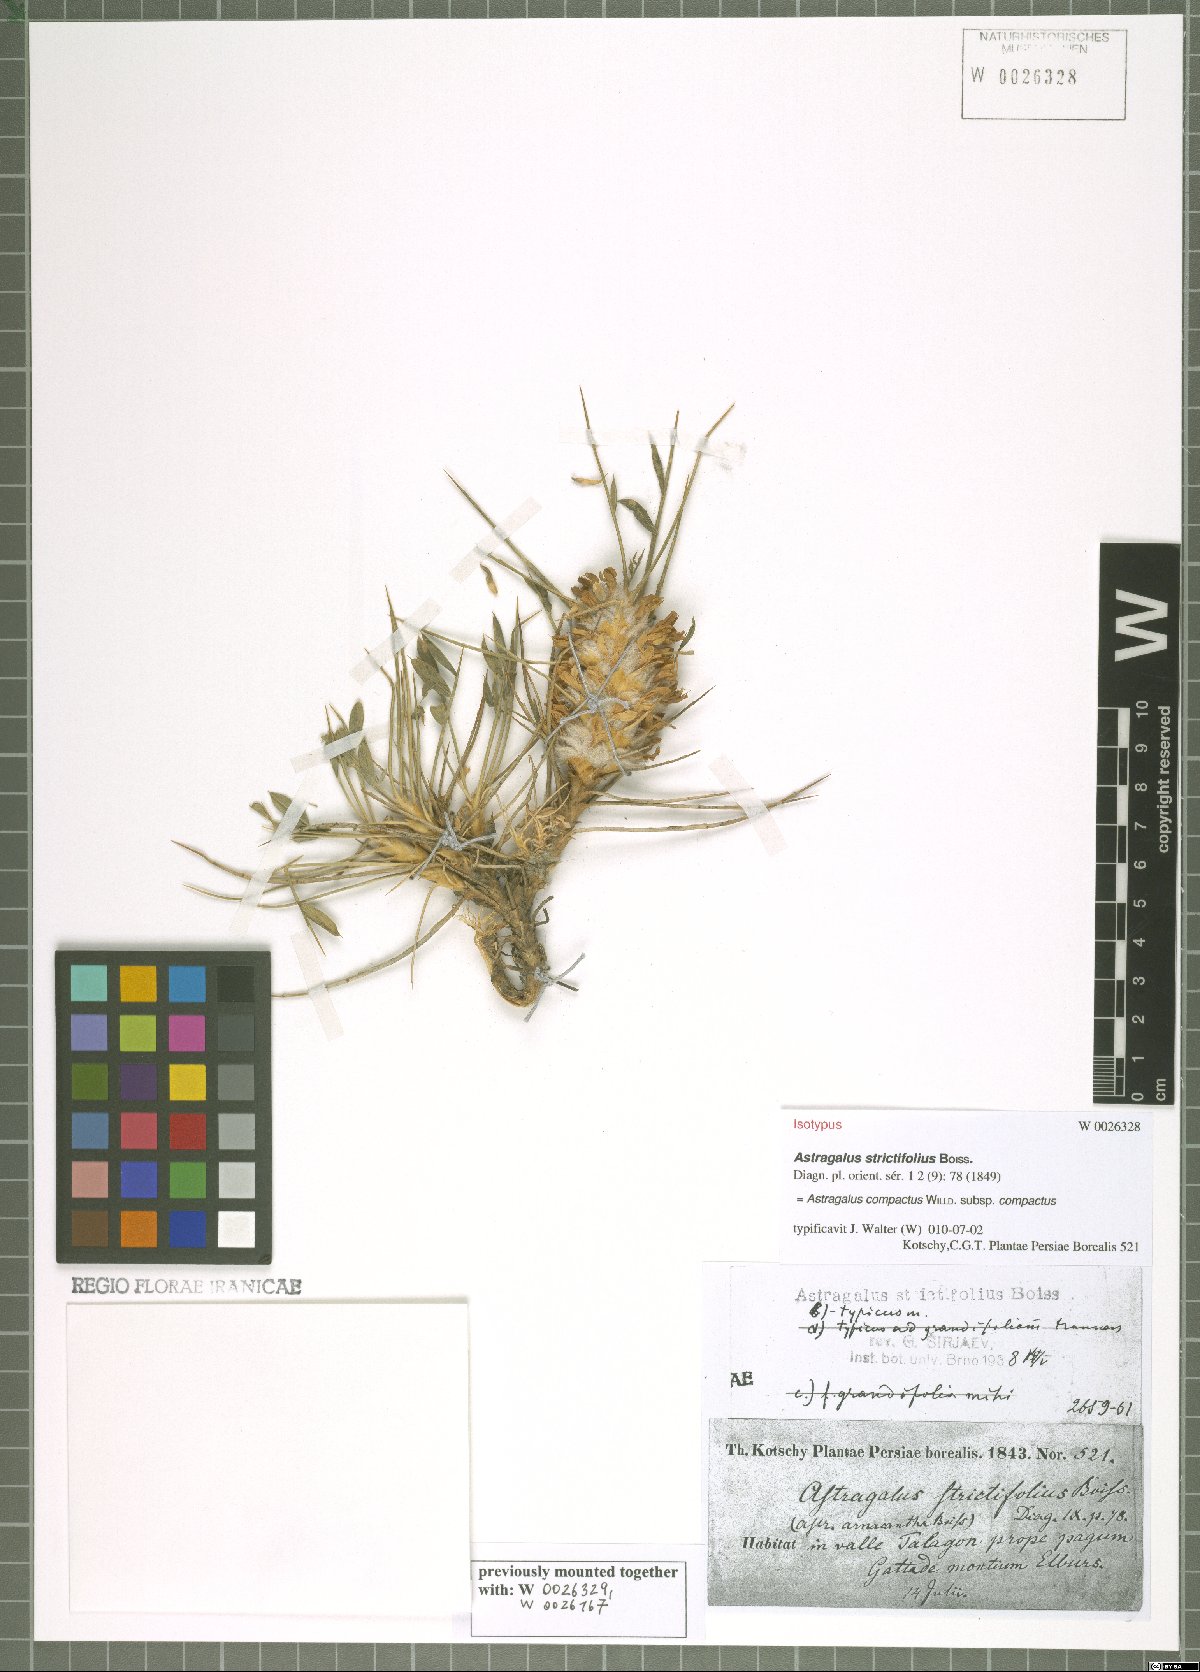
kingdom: Plantae
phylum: Tracheophyta
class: Magnoliopsida
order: Fabales
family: Fabaceae
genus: Astragalus
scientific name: Astragalus compactus
